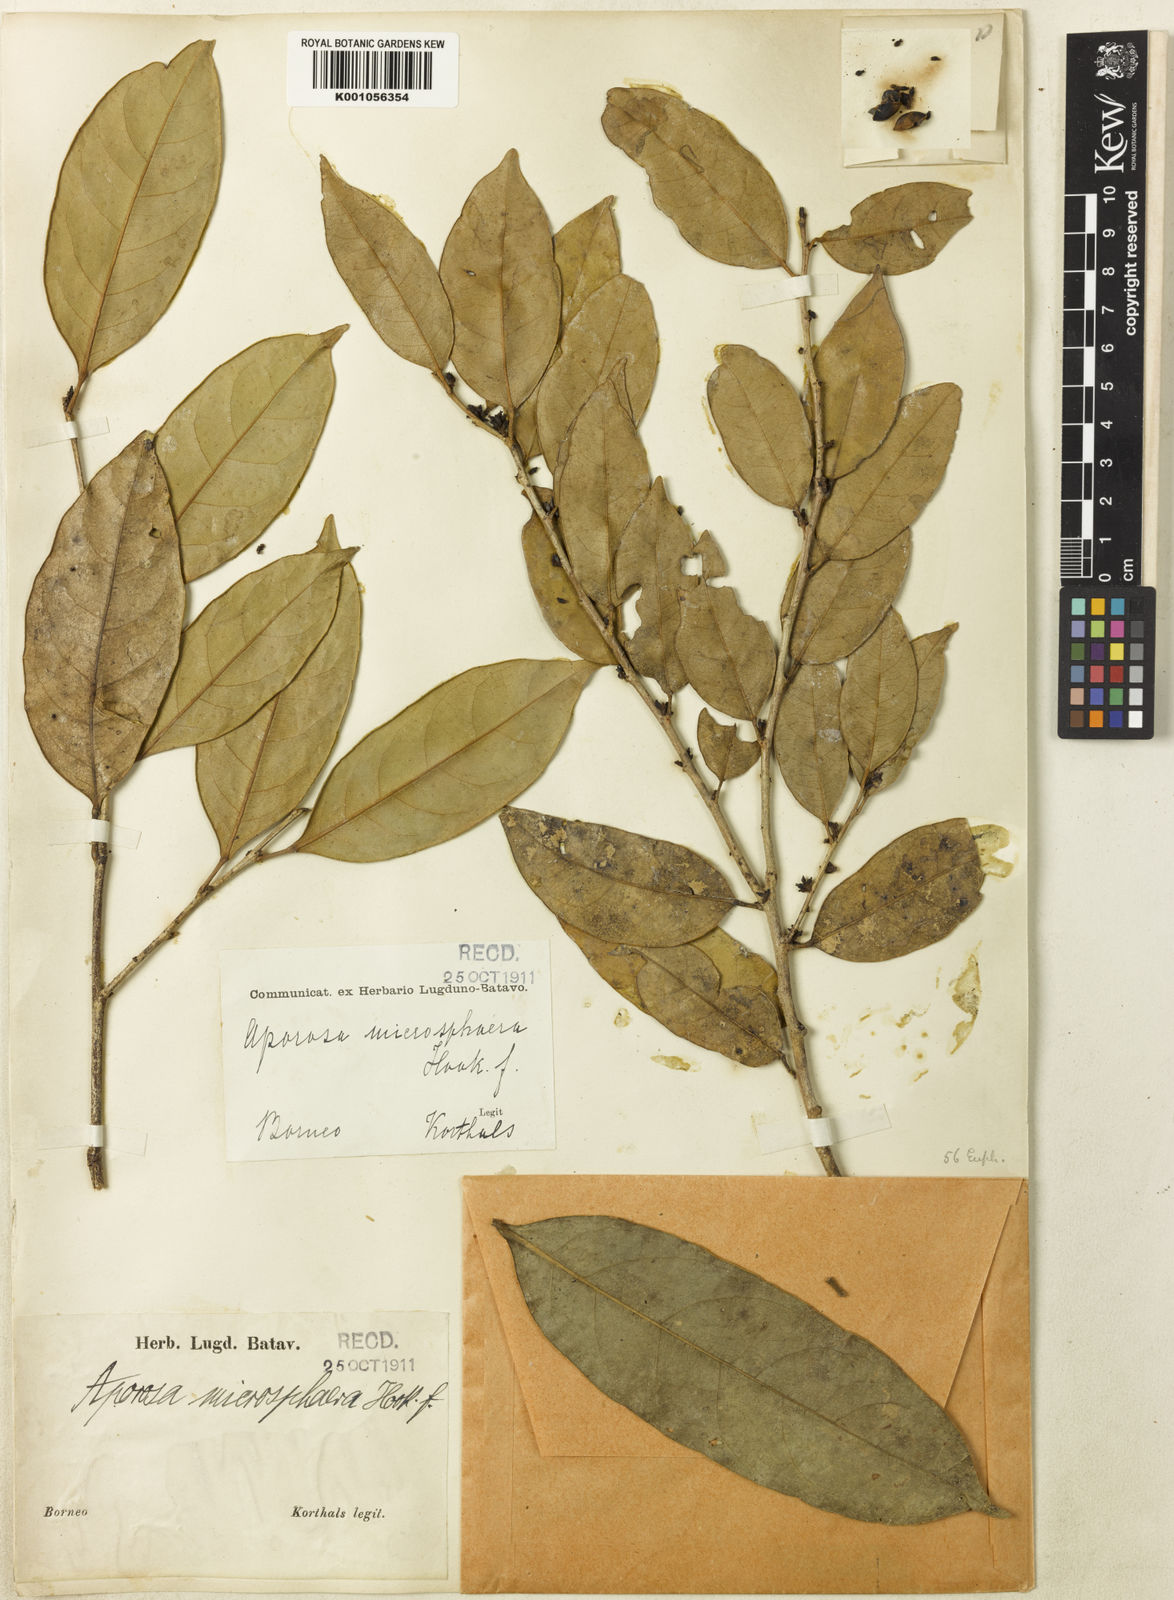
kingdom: Plantae
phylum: Tracheophyta
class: Magnoliopsida
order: Malpighiales
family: Phyllanthaceae
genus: Aporosa
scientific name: Aporosa lucida
